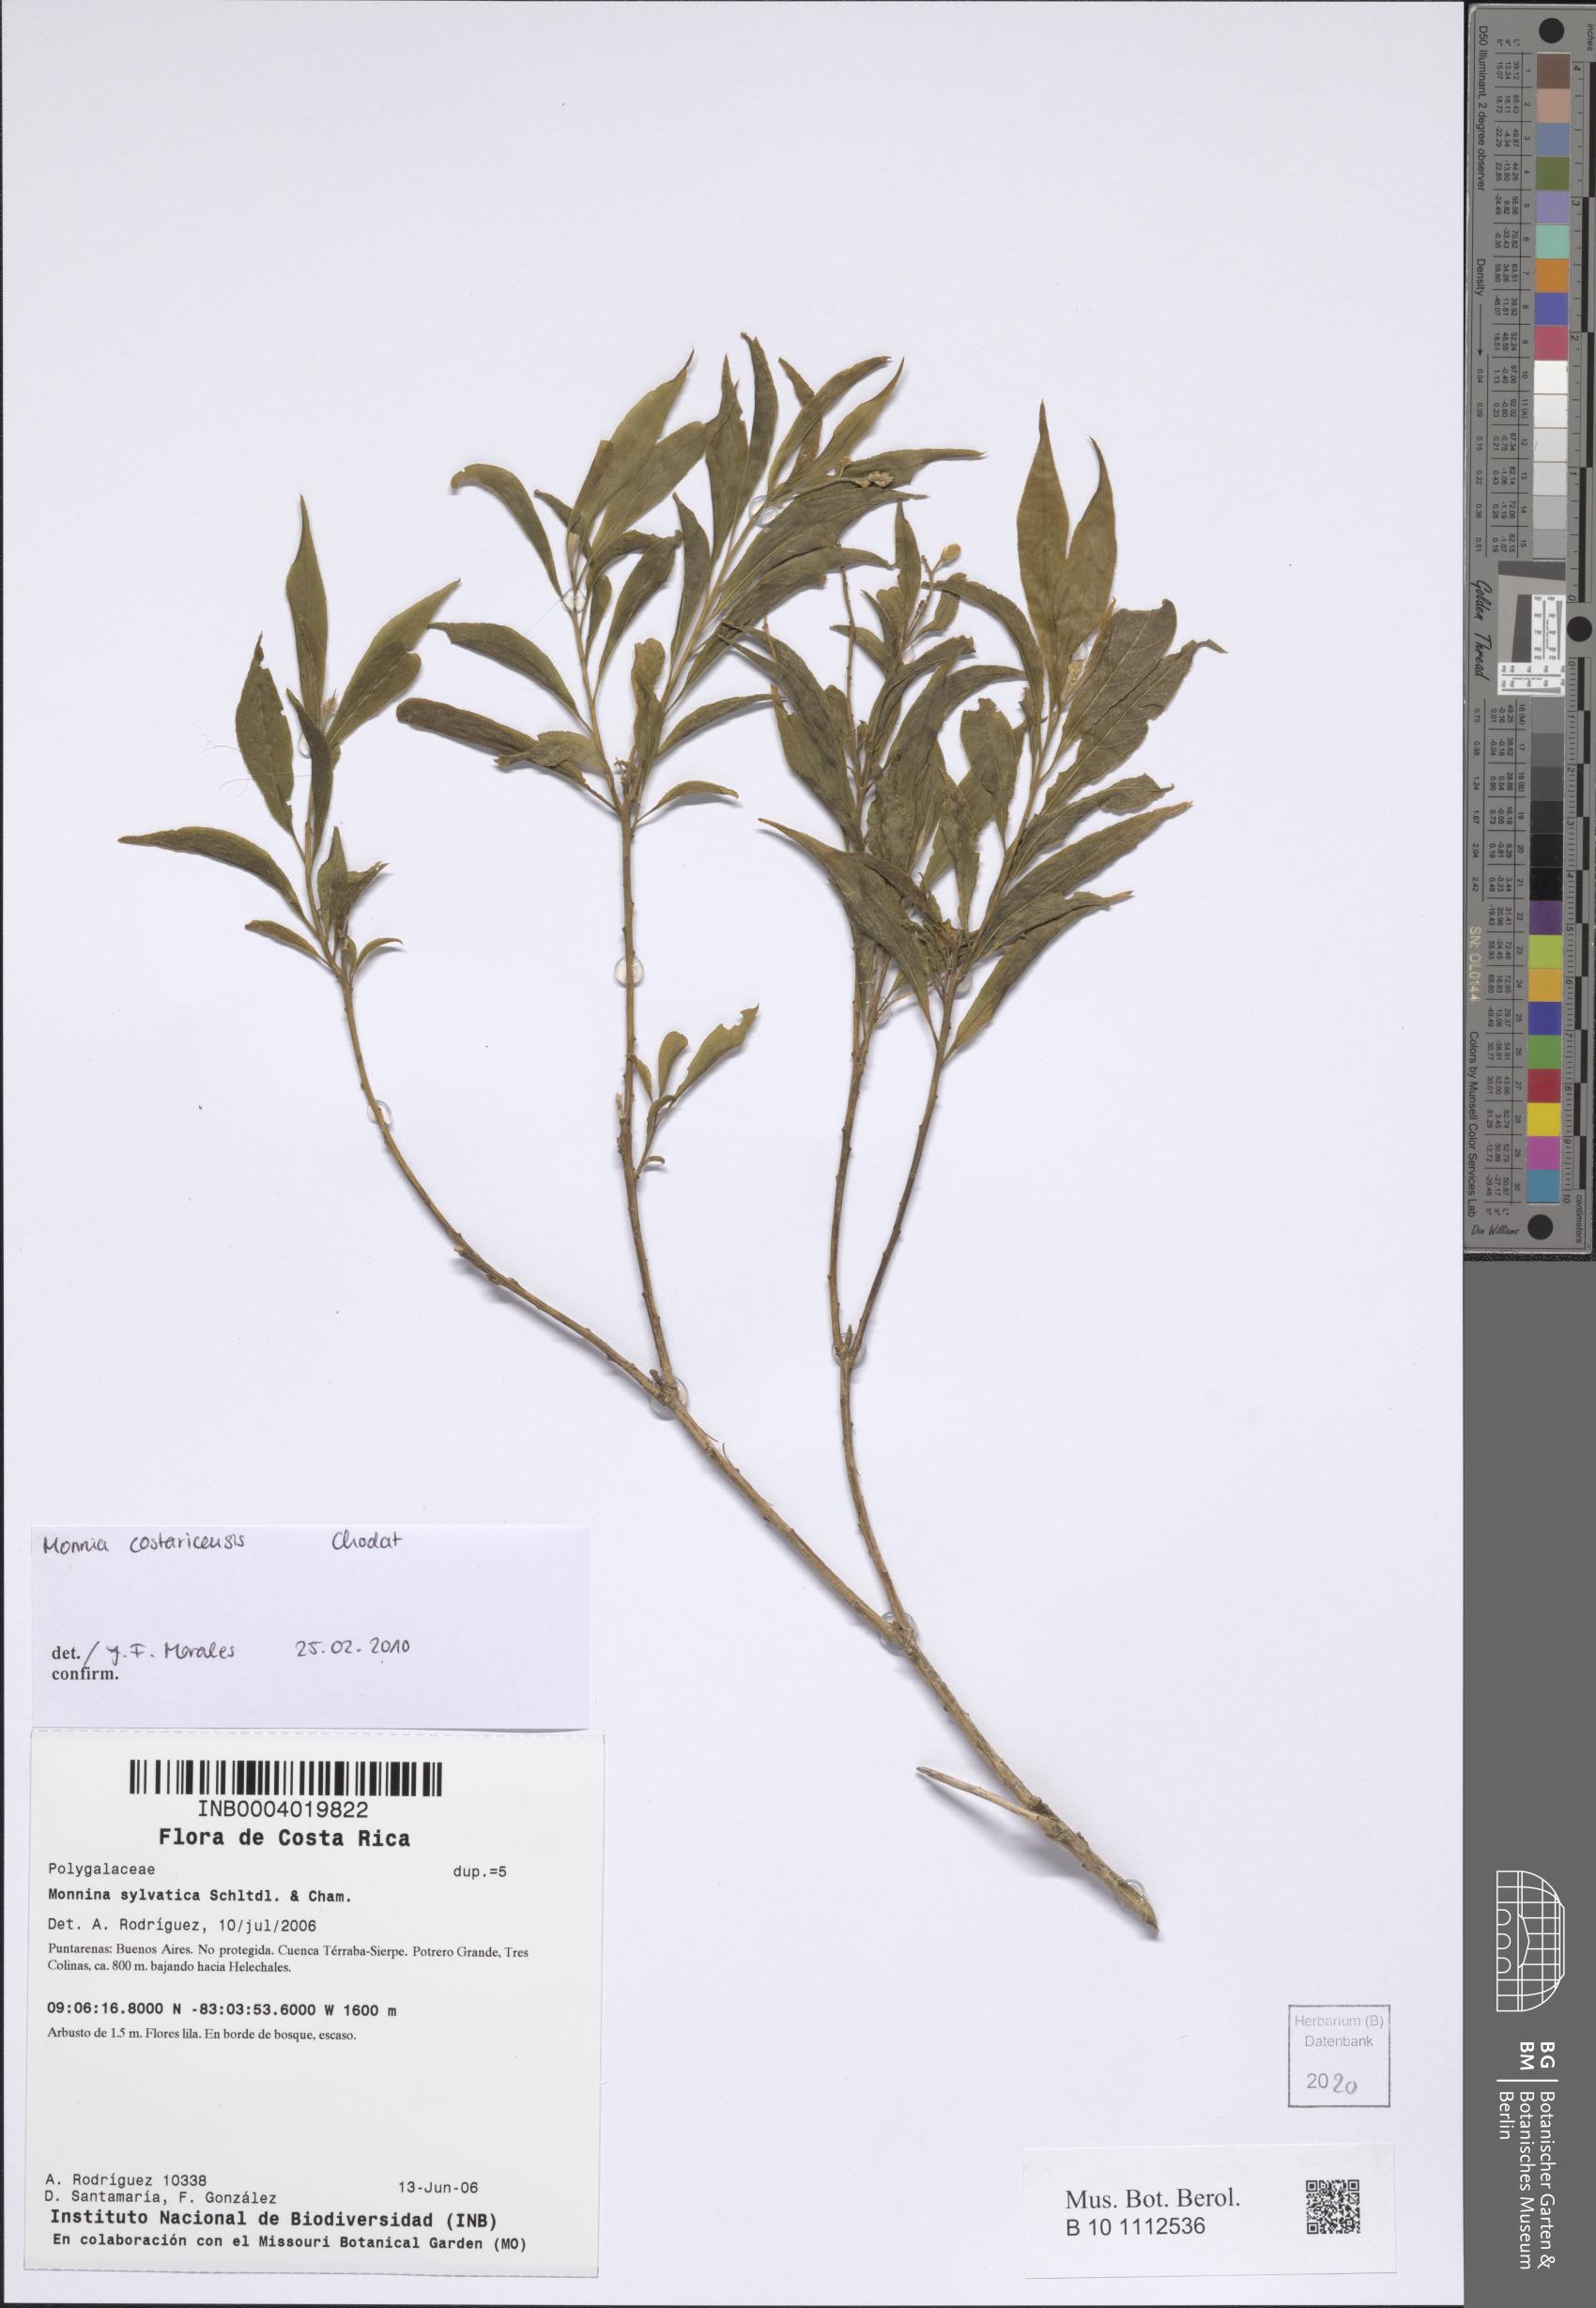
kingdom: Plantae
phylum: Tracheophyta
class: Magnoliopsida
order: Fabales
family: Polygalaceae
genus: Monnina
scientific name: Monnina costaricensis
